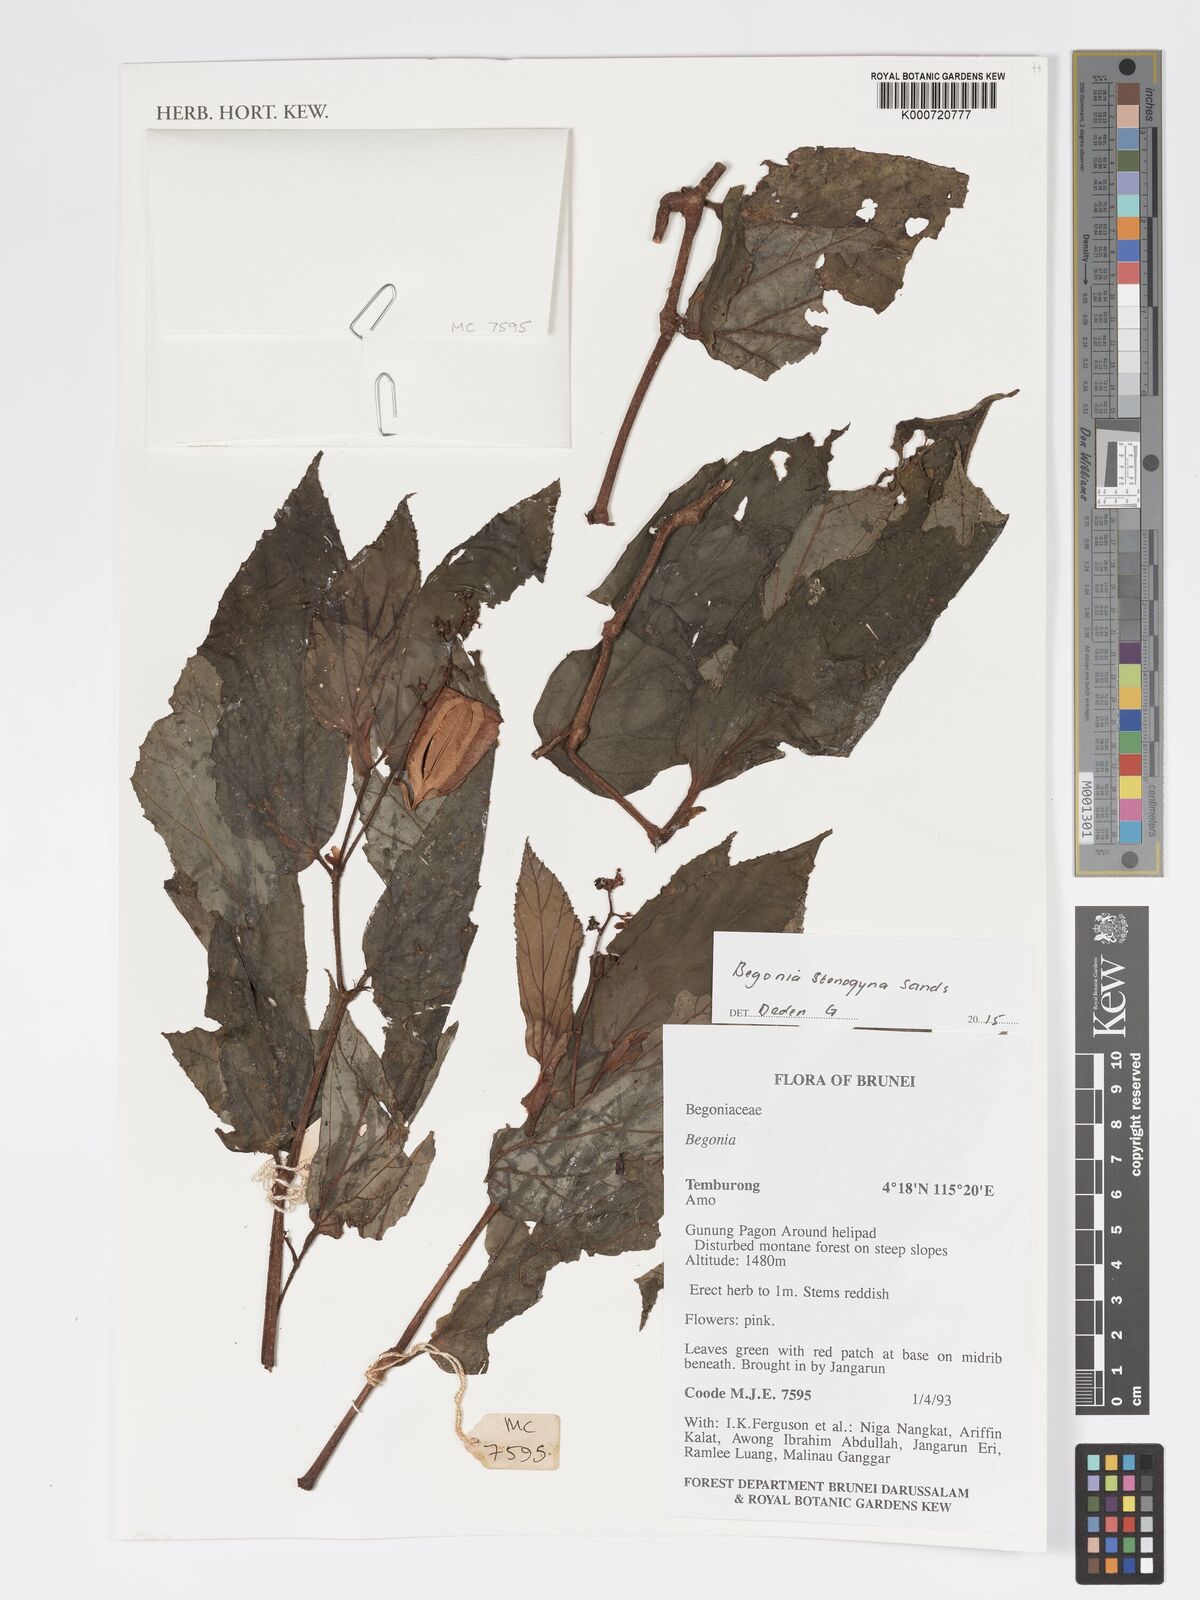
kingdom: Plantae
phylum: Tracheophyta
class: Magnoliopsida
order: Cucurbitales
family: Begoniaceae
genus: Begonia
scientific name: Begonia stenogyna
